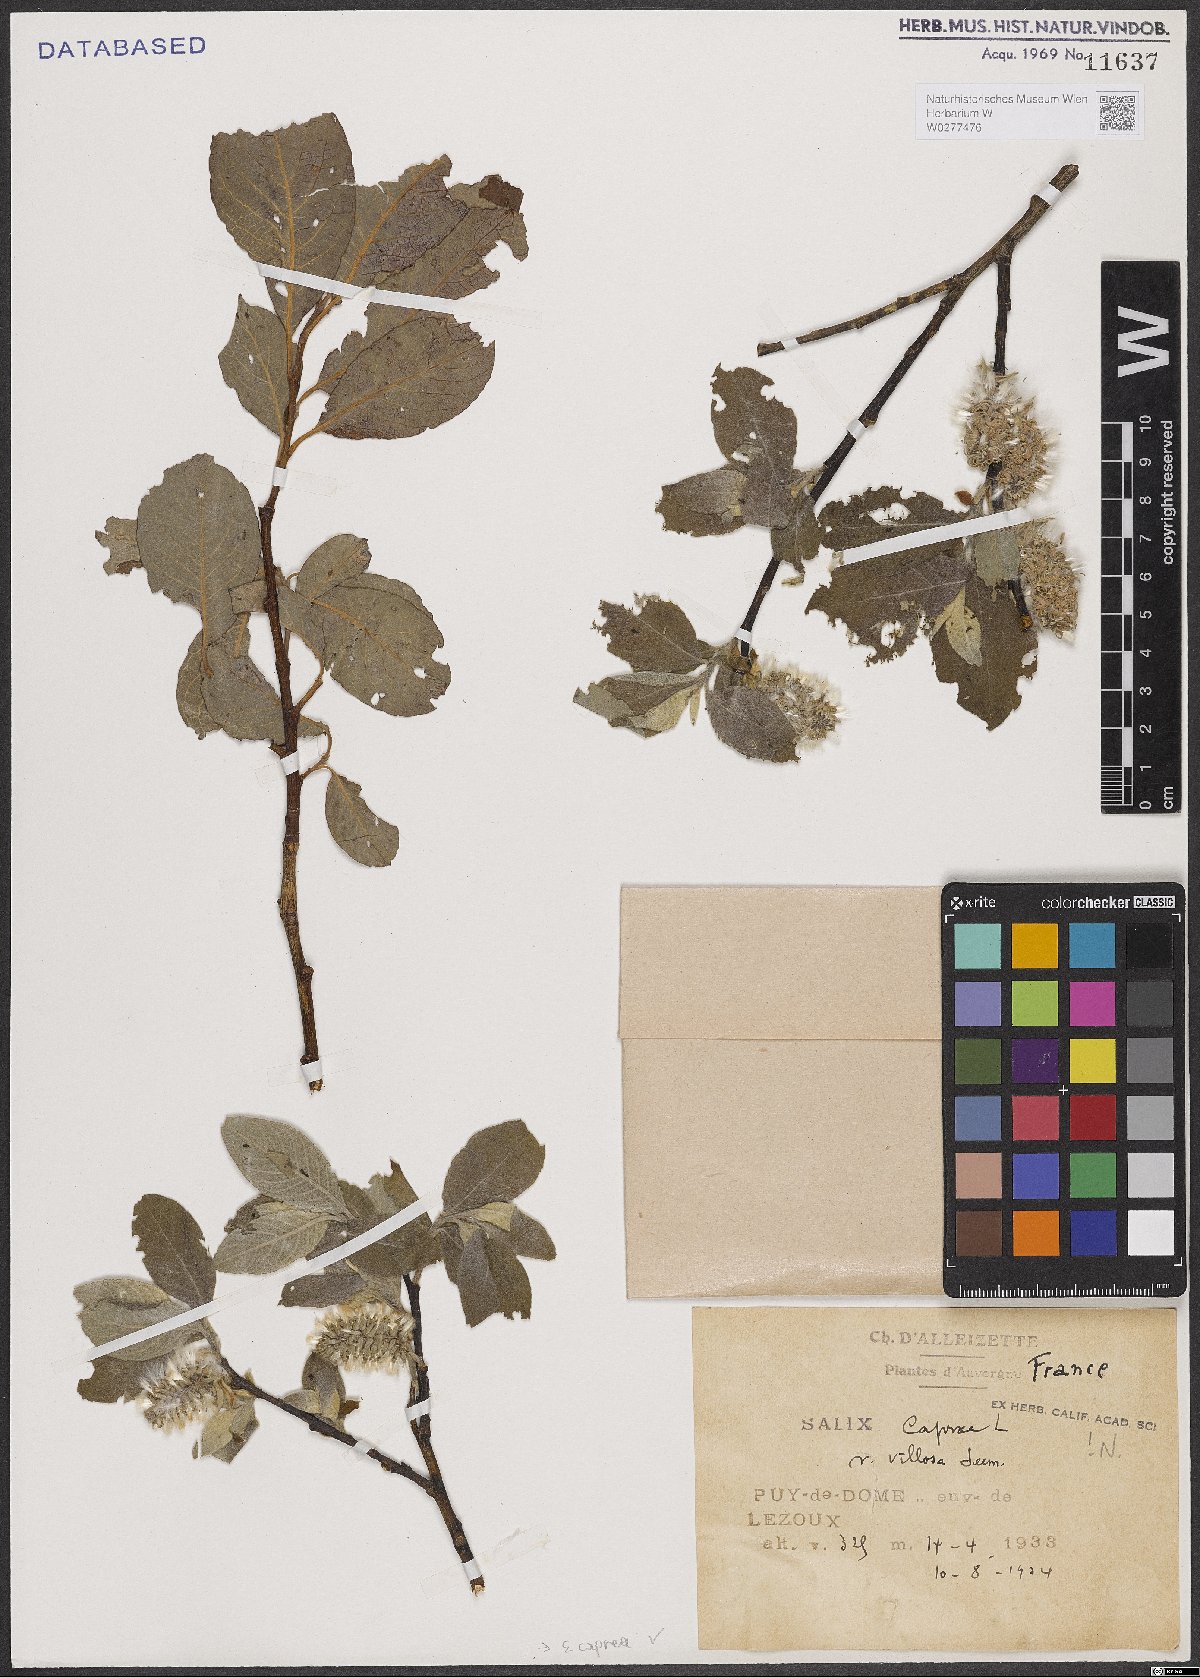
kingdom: Plantae
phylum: Tracheophyta
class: Magnoliopsida
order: Malpighiales
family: Salicaceae
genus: Salix
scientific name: Salix caprea
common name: Goat willow
